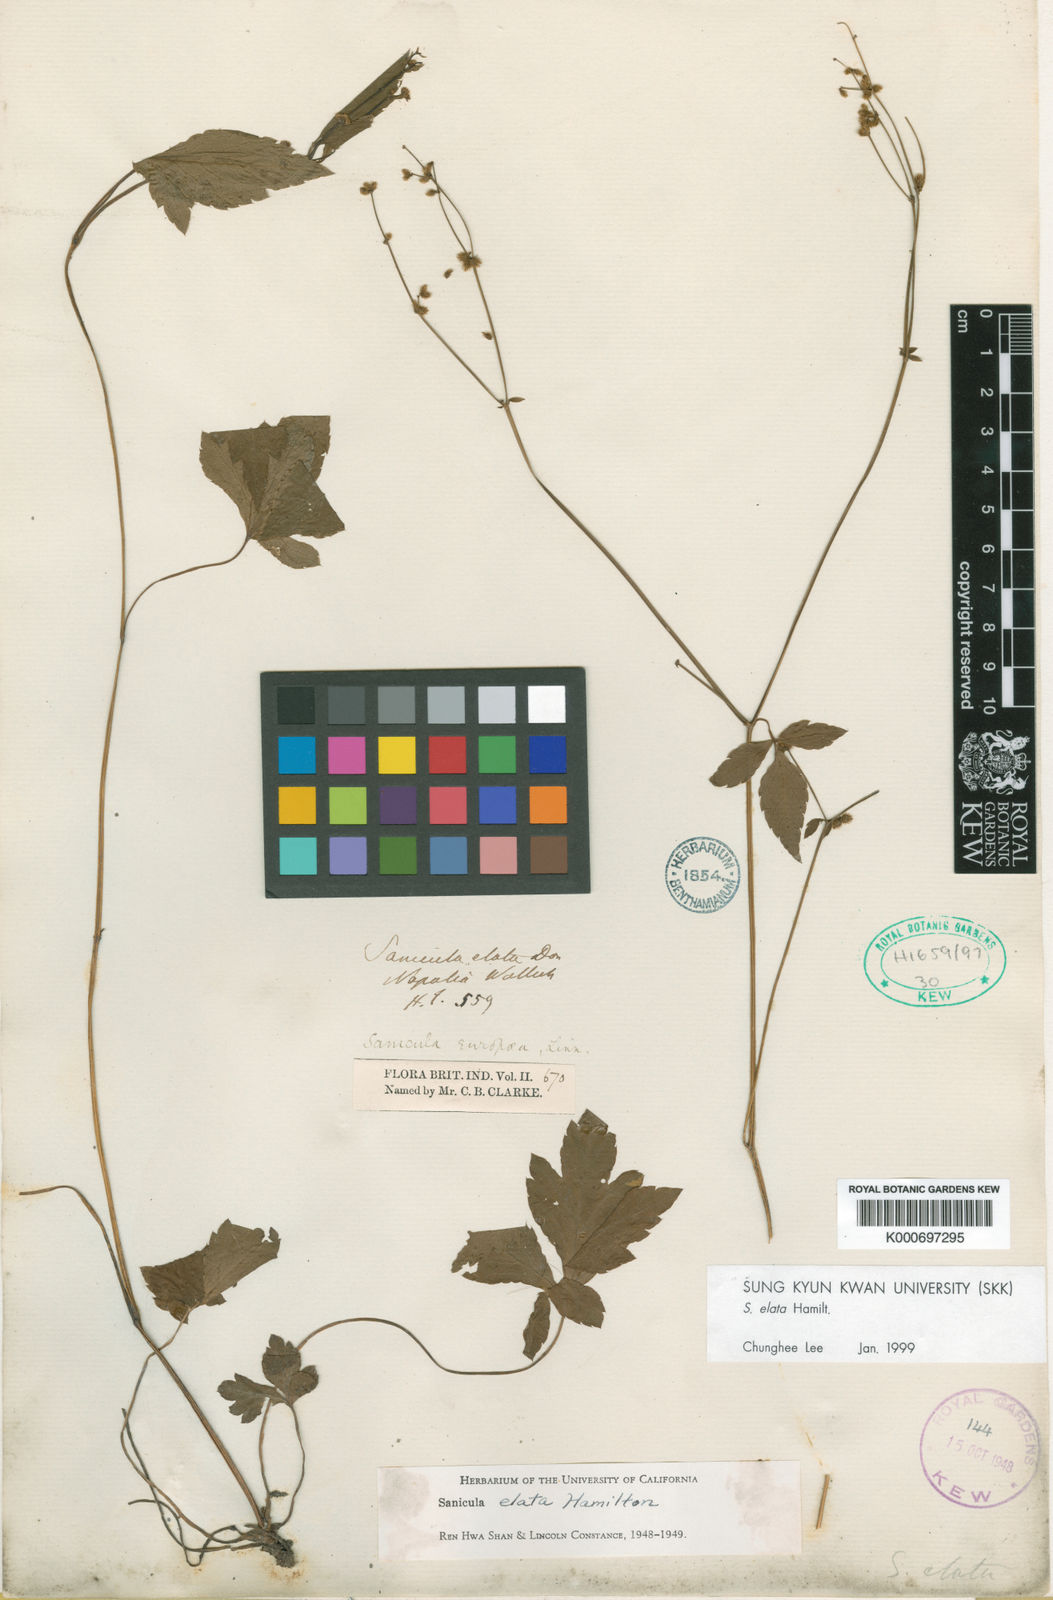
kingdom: Plantae
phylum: Tracheophyta
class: Magnoliopsida
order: Apiales
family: Apiaceae
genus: Sanicula
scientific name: Sanicula elata
